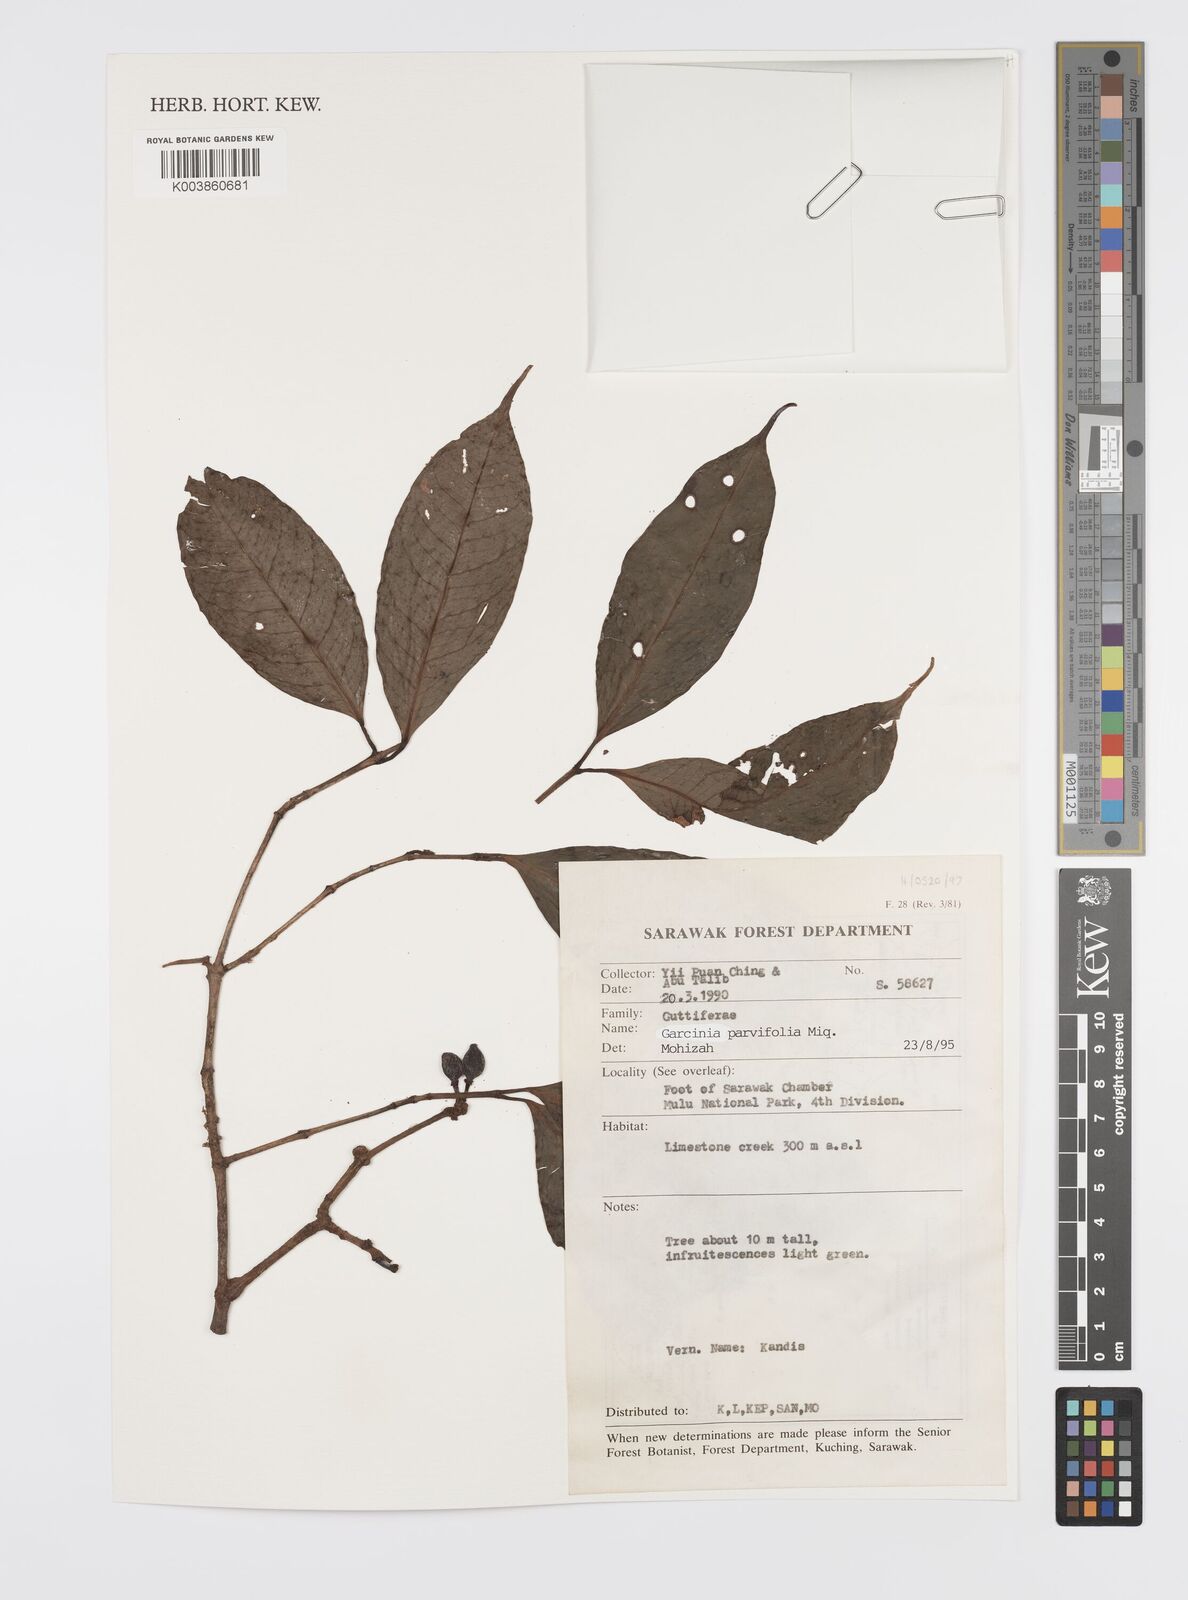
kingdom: Plantae
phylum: Tracheophyta
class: Magnoliopsida
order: Malpighiales
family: Clusiaceae
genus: Garcinia
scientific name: Garcinia parvifolia
